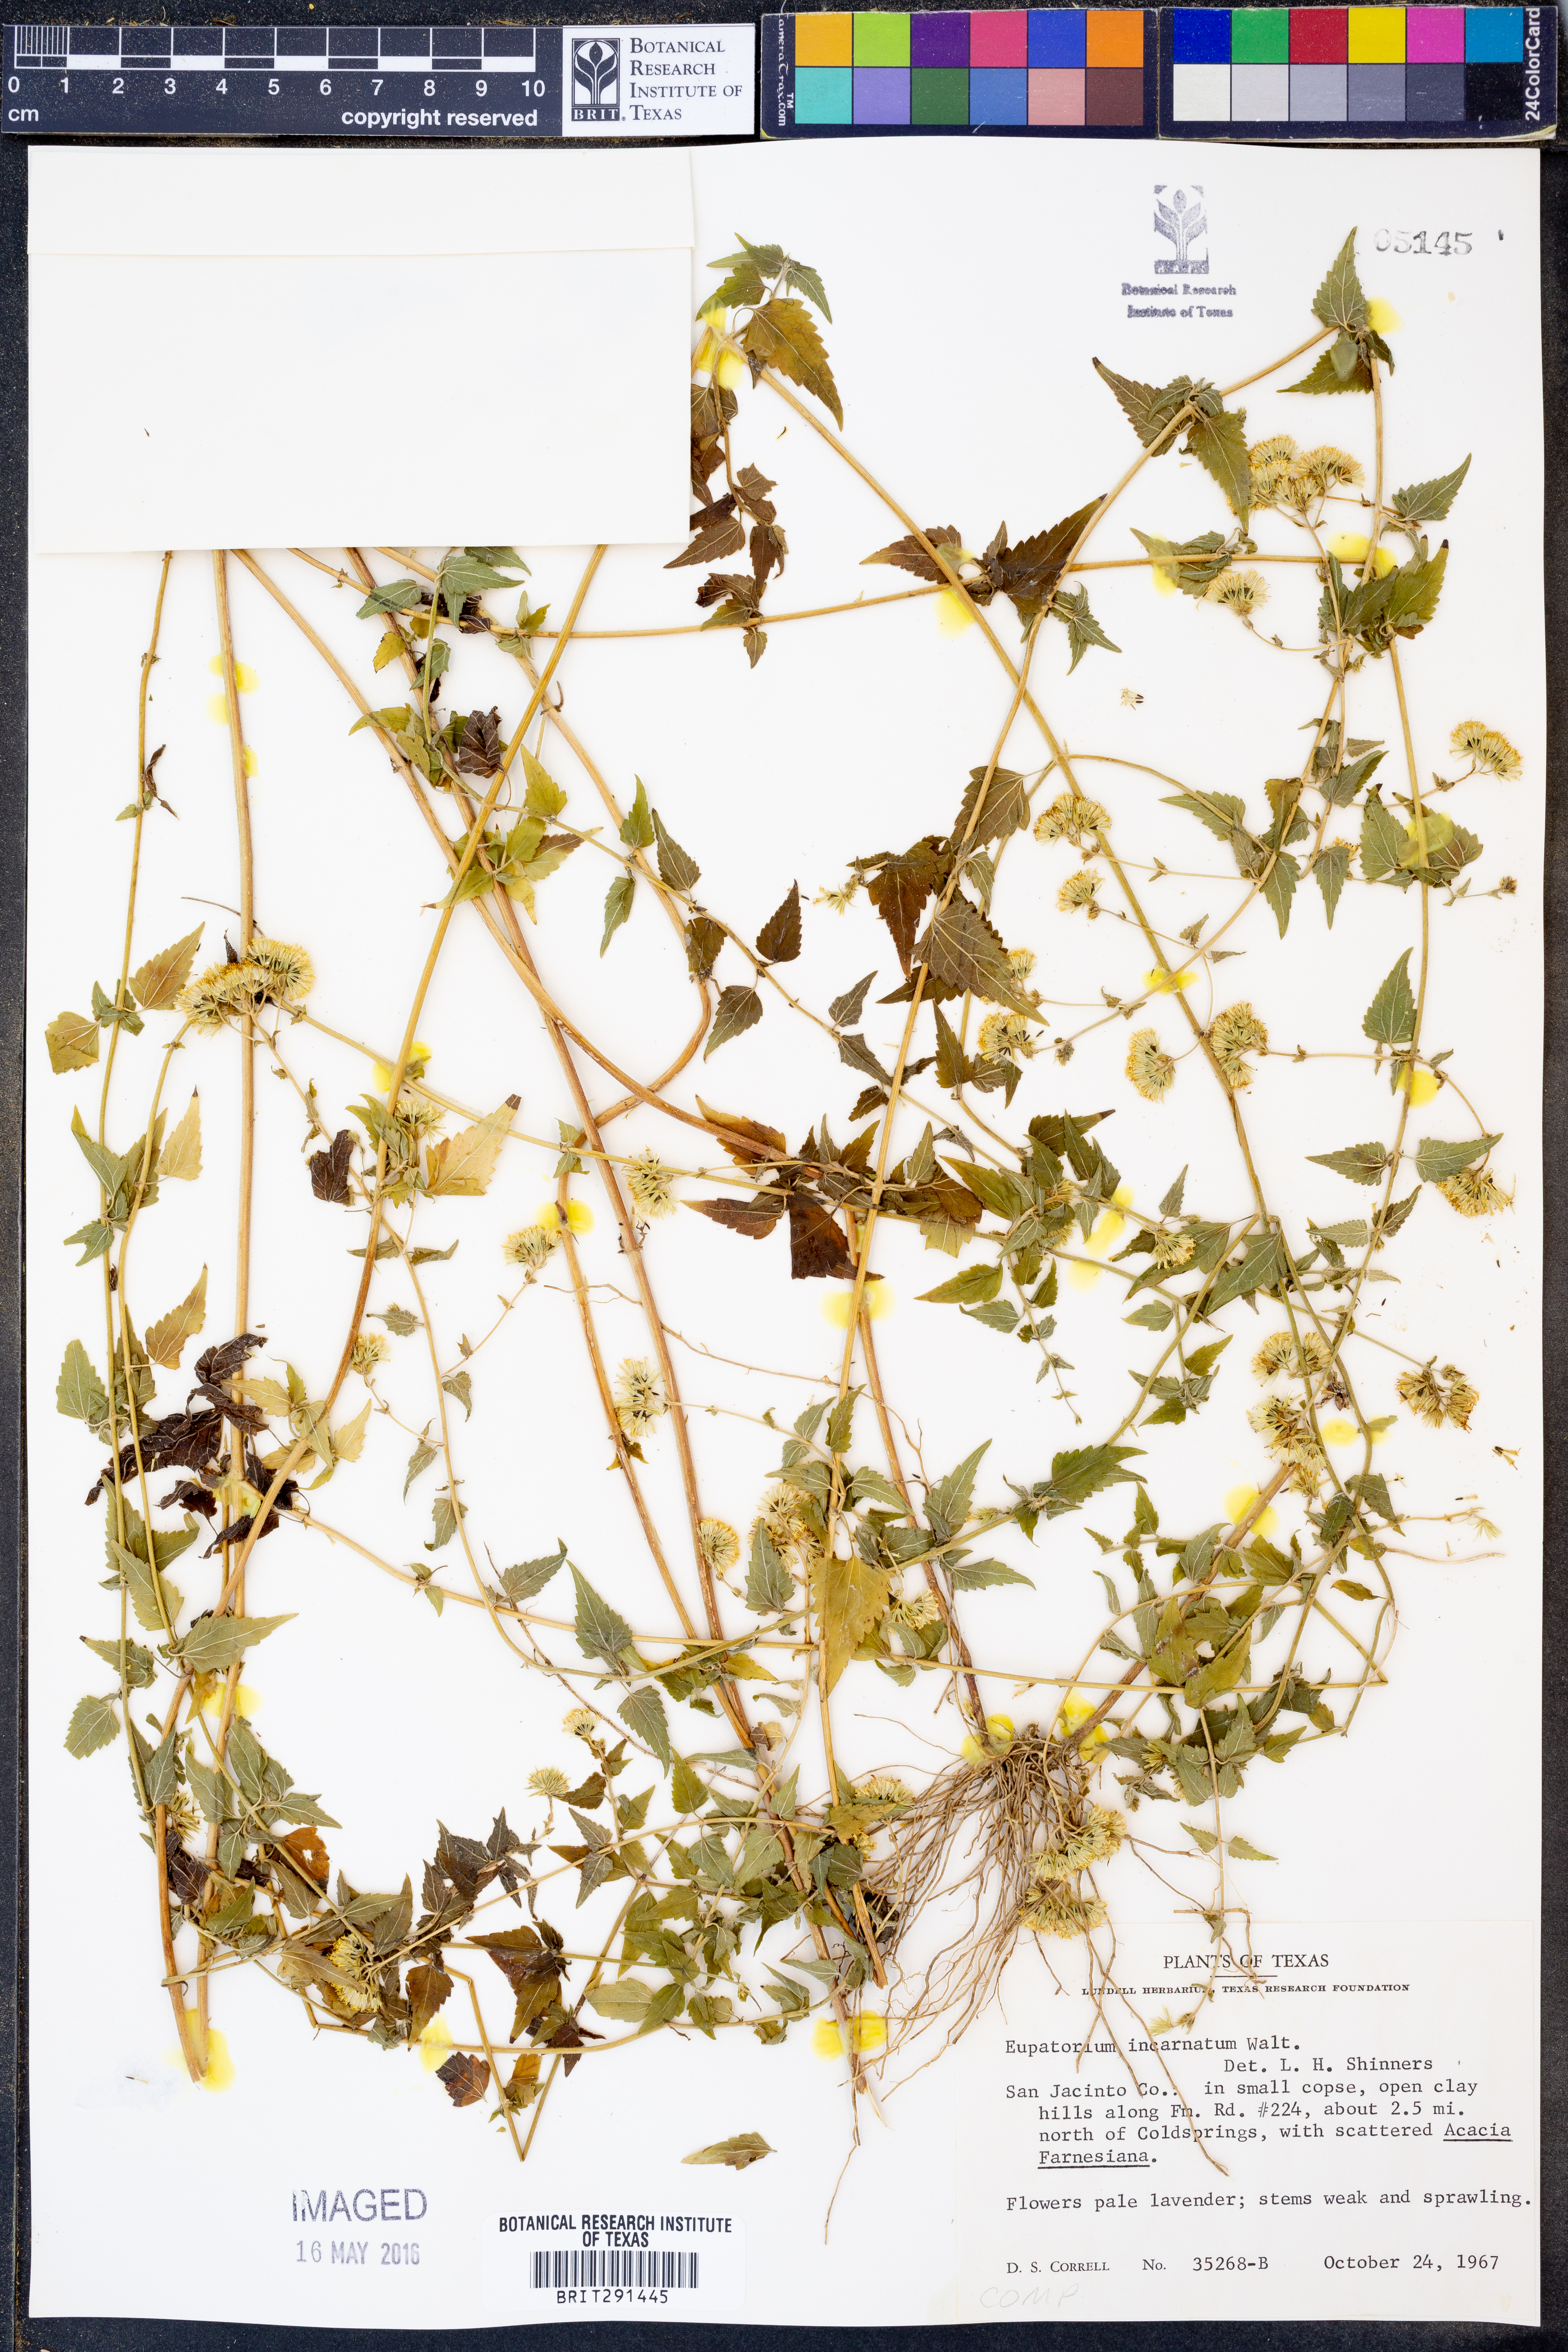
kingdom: Plantae
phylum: Tracheophyta
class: Magnoliopsida
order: Asterales
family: Asteraceae
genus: Fleischmannia
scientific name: Fleischmannia incarnata
